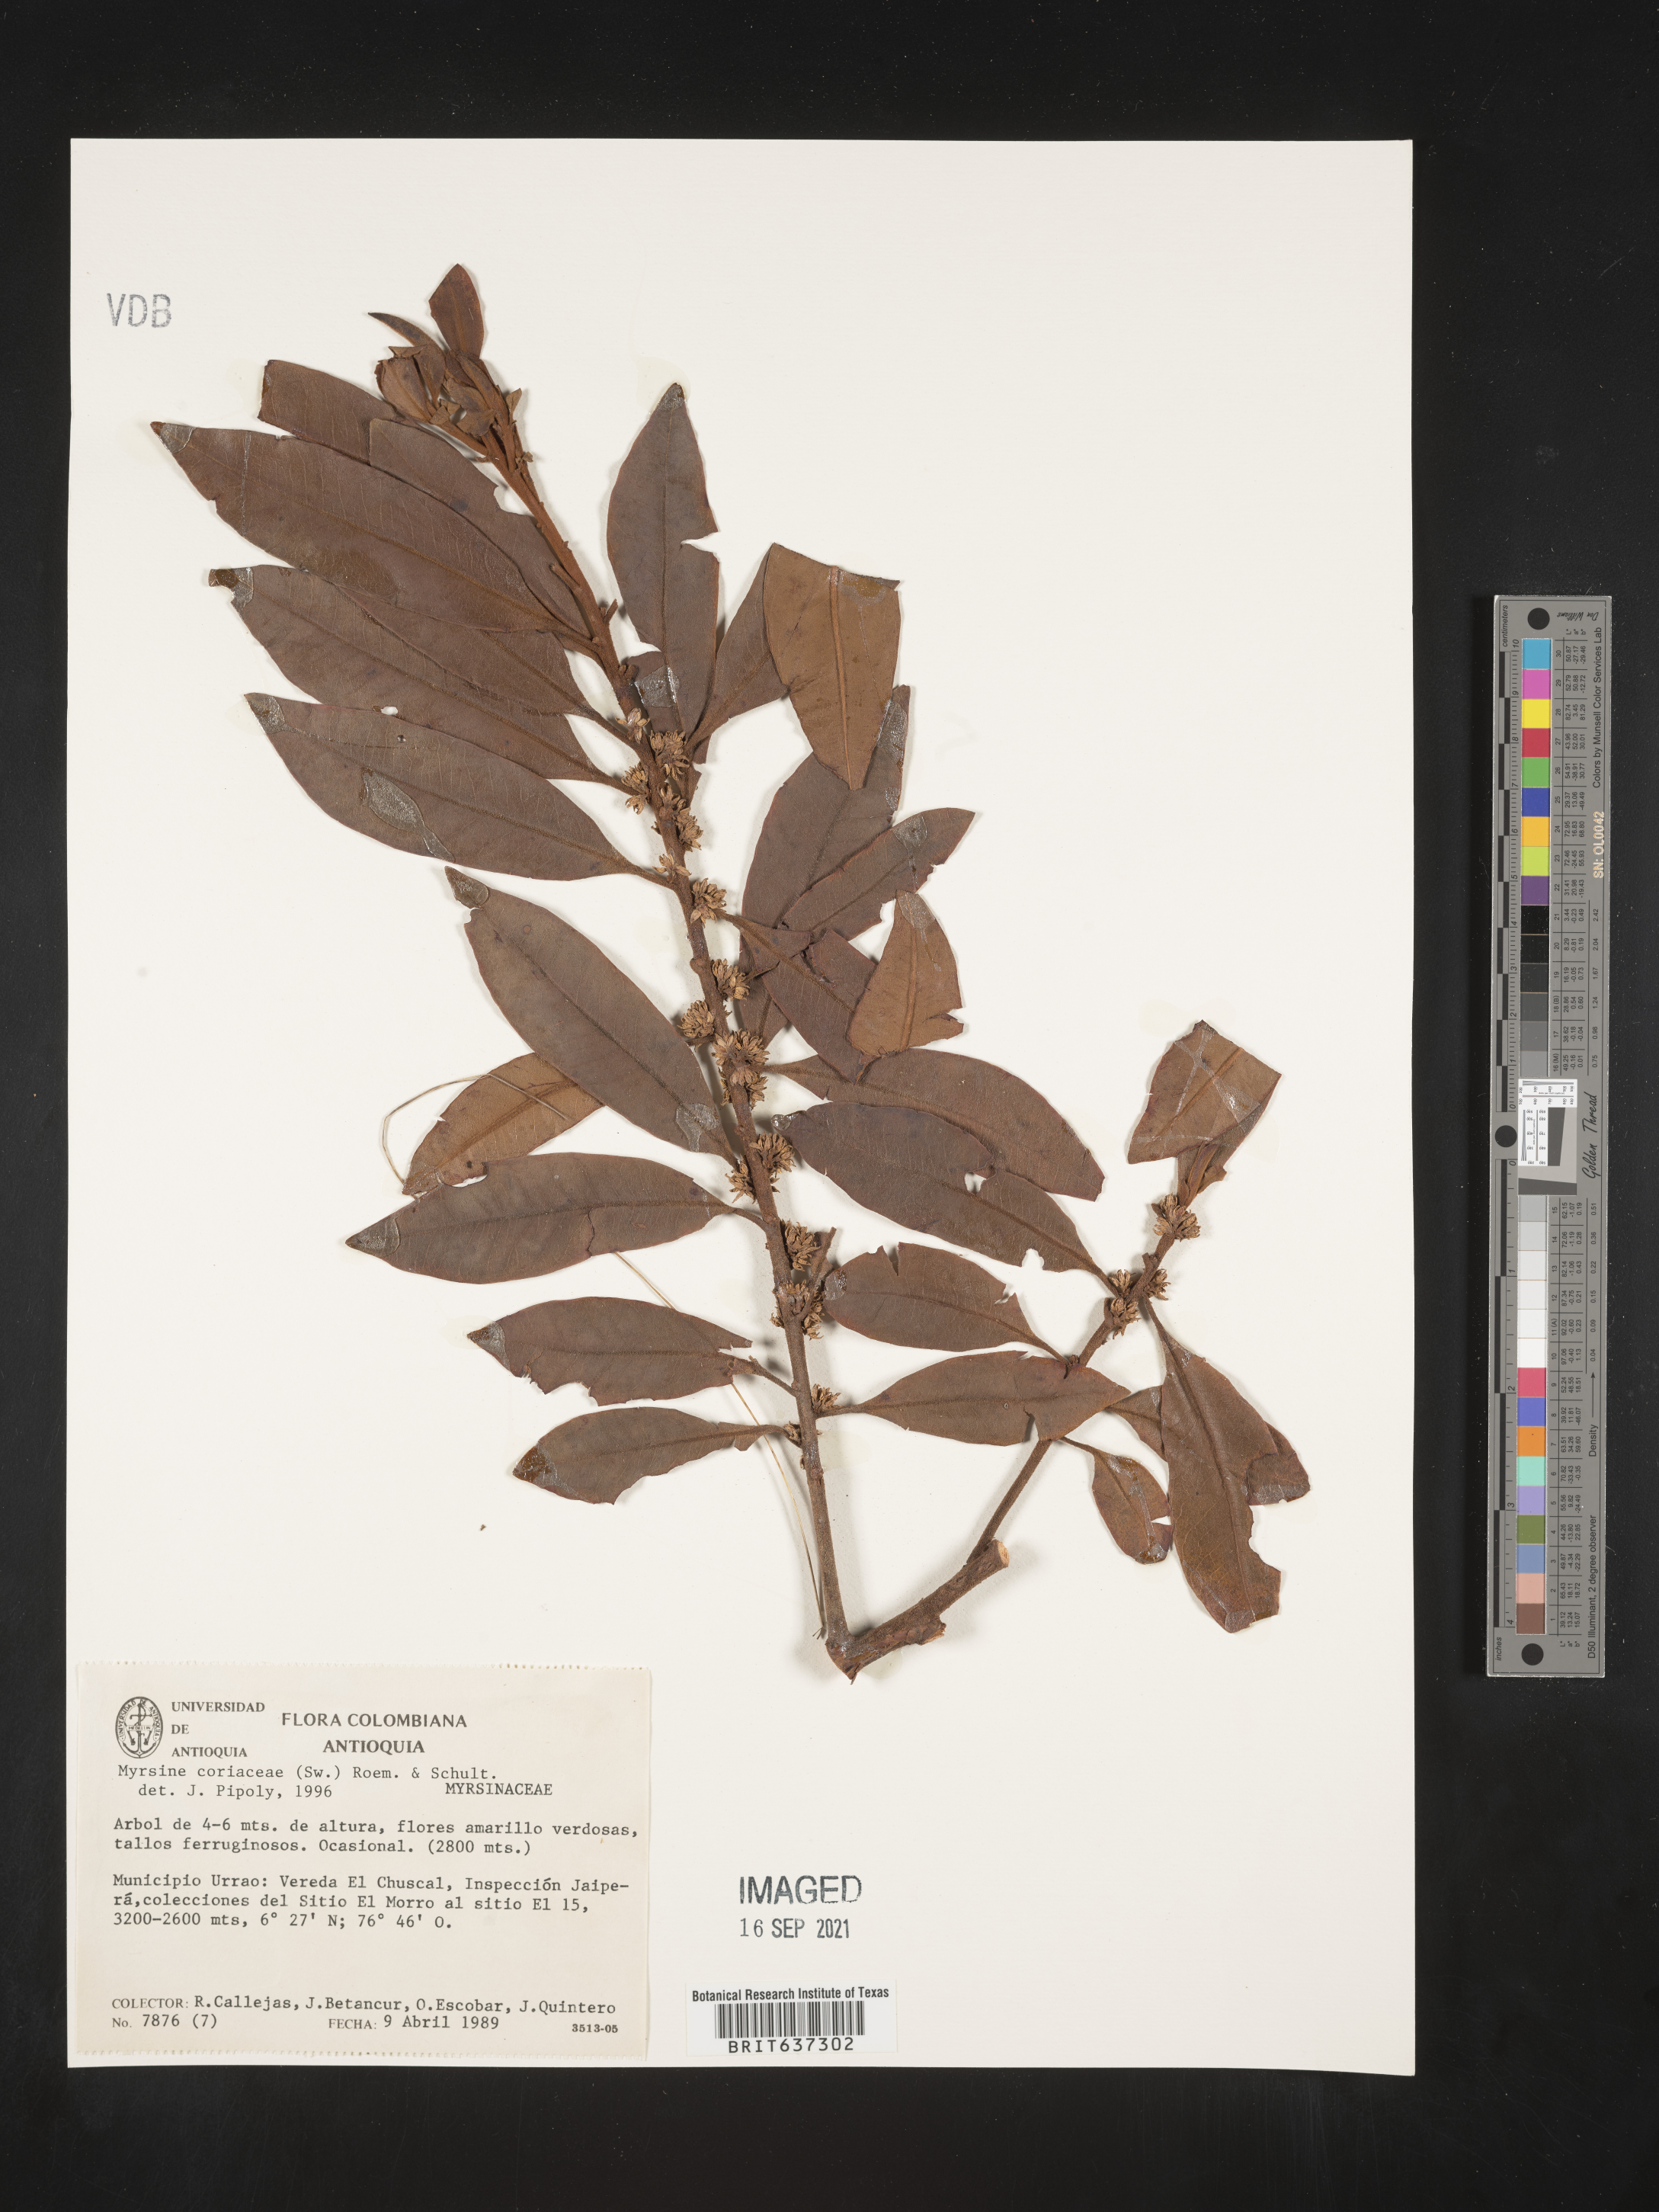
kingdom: Plantae
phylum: Tracheophyta
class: Magnoliopsida
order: Ericales
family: Primulaceae
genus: Myrsine
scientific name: Myrsine
